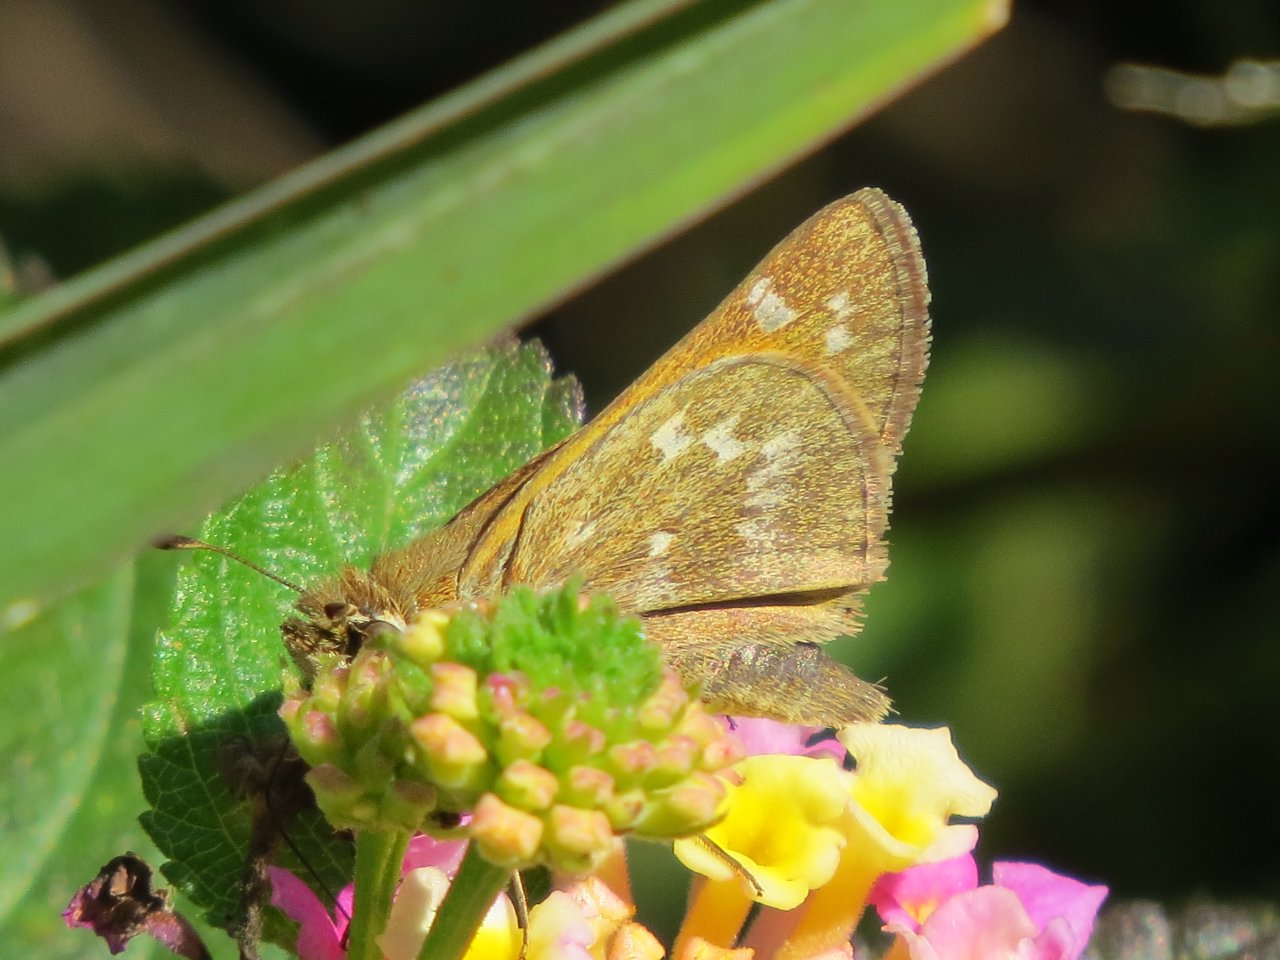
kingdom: Animalia
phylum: Arthropoda
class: Insecta
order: Lepidoptera
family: Hesperiidae
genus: Atalopedes
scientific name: Atalopedes campestris
